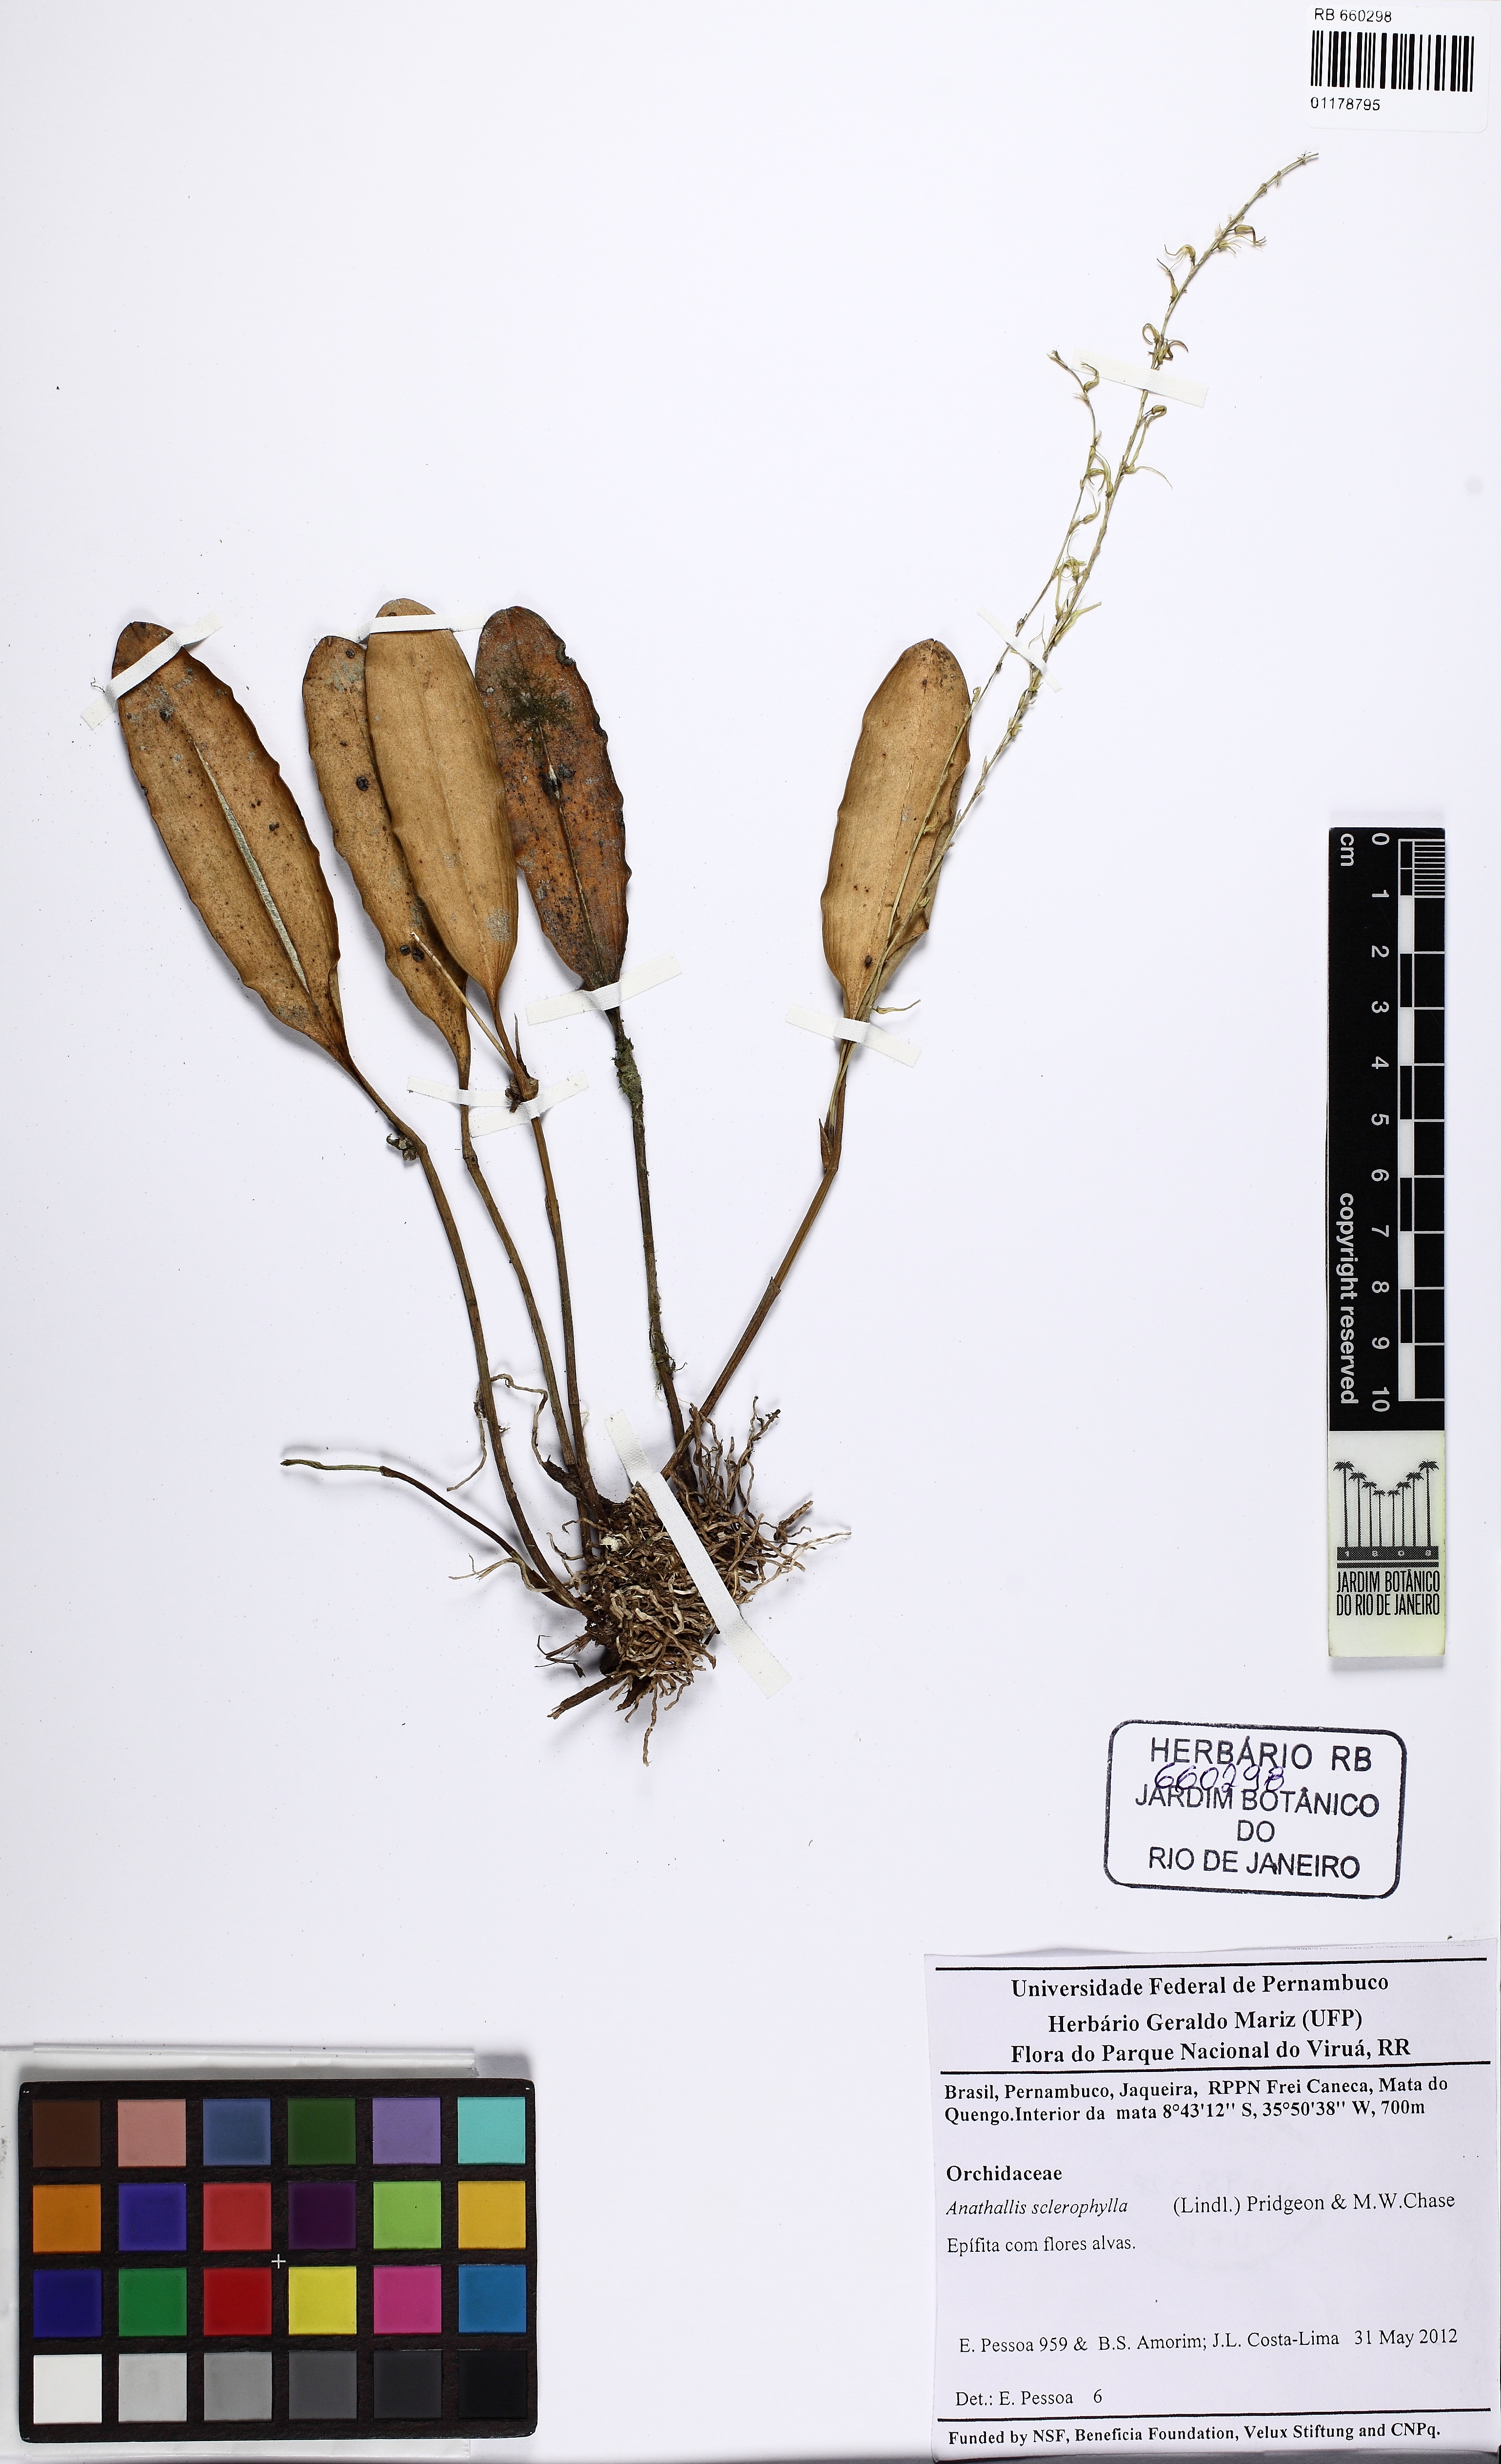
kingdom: Plantae
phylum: Tracheophyta
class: Liliopsida
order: Asparagales
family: Orchidaceae
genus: Stelis
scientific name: Stelis sclerophylla
